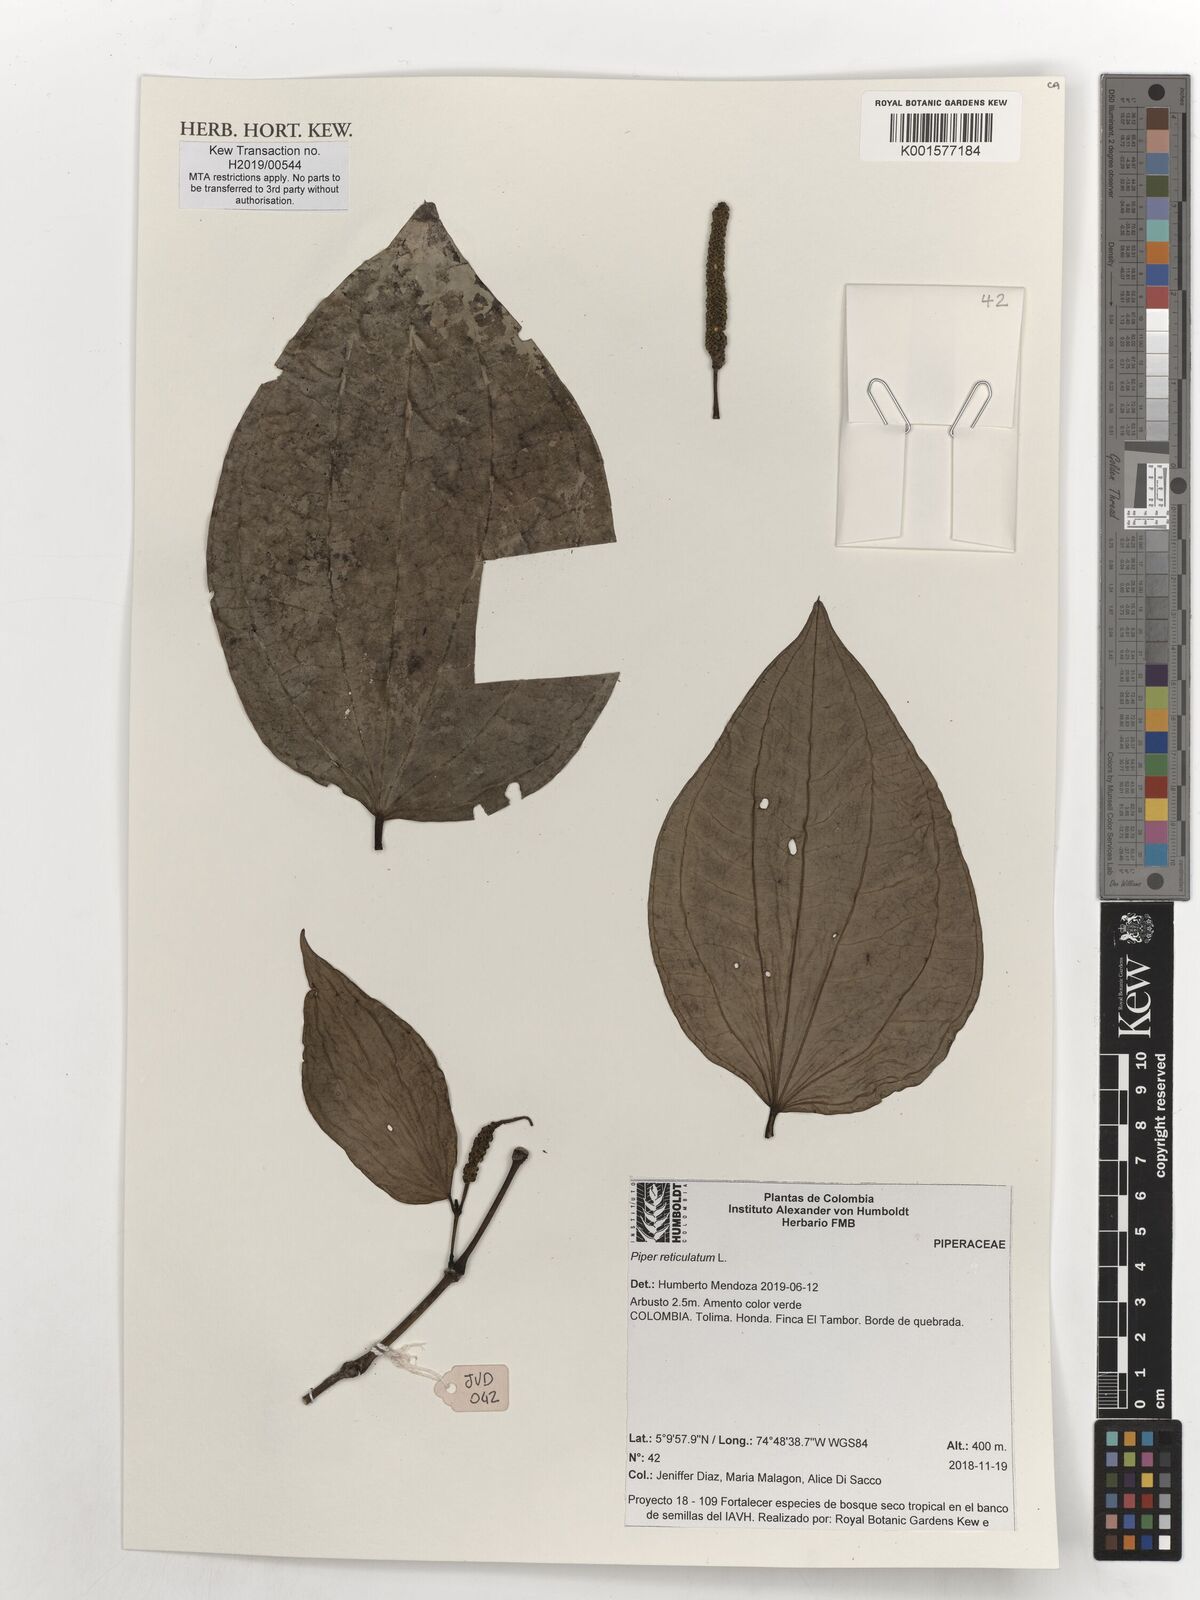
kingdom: Plantae
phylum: Tracheophyta
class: Magnoliopsida
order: Piperales
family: Piperaceae
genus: Piper
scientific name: Piper reticulatum
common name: Wild cane
